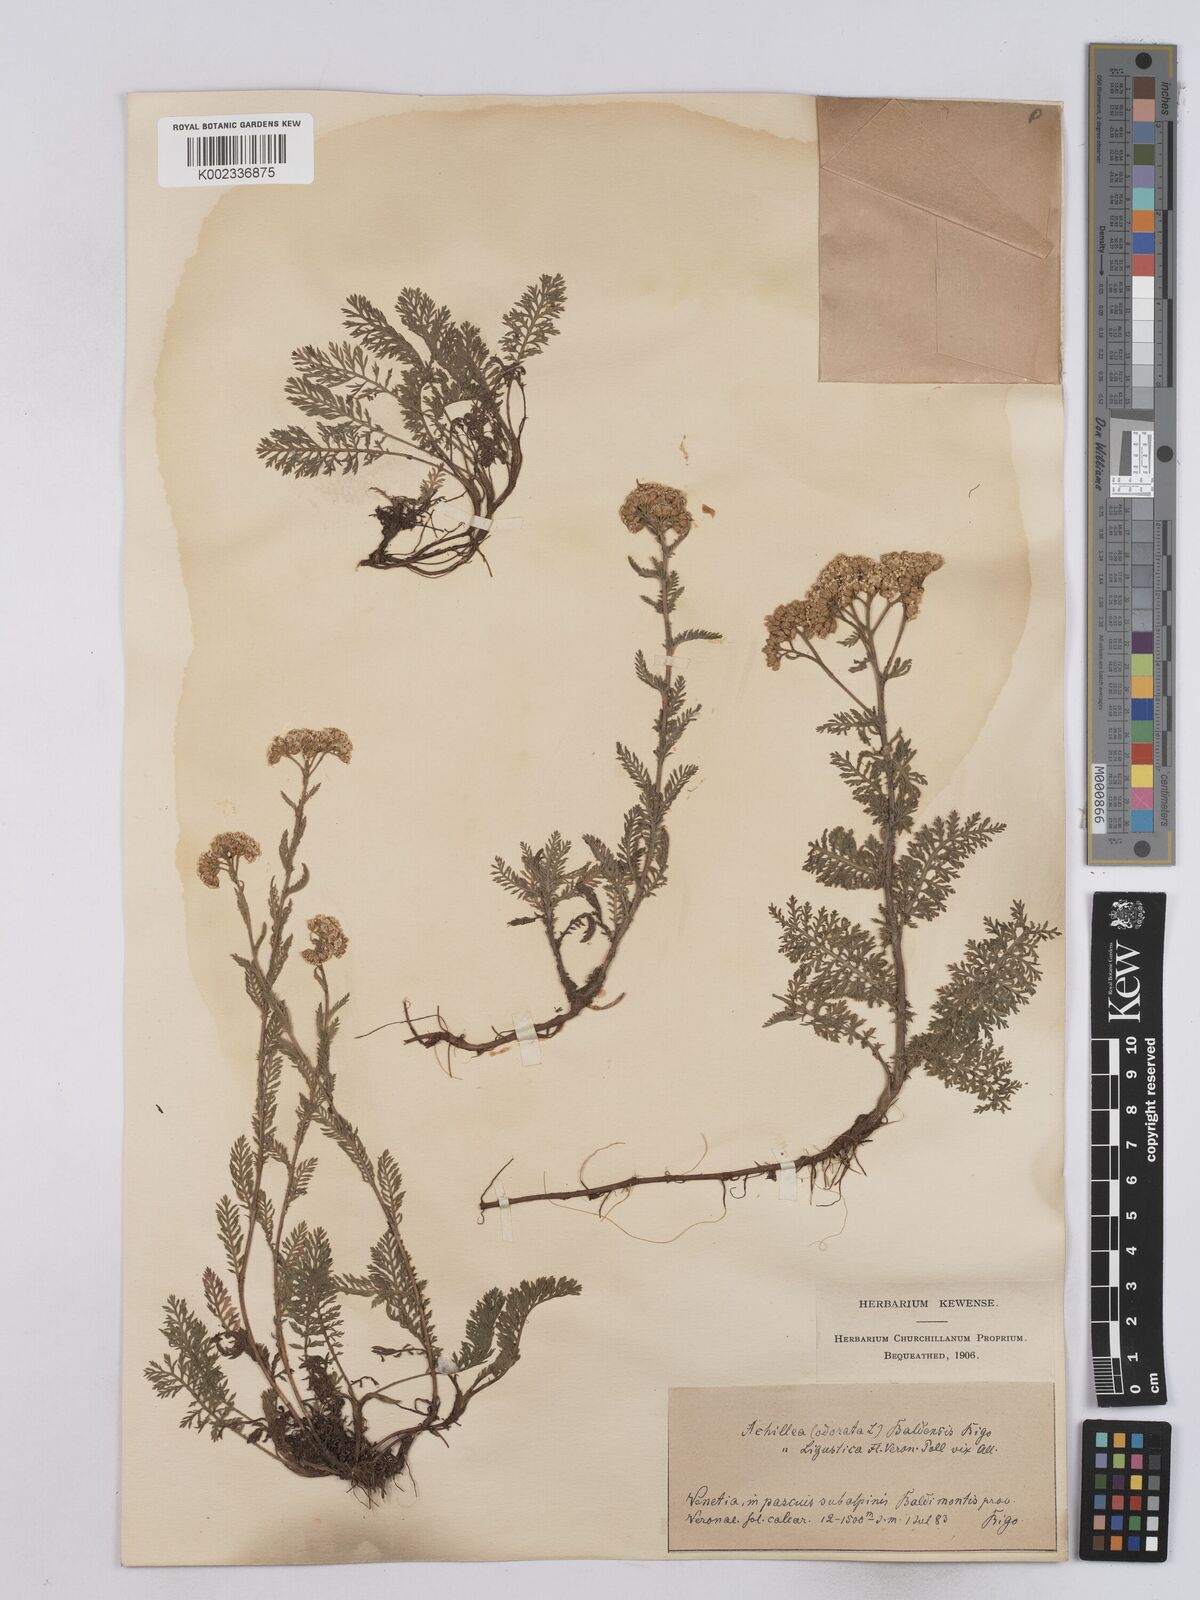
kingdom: Plantae
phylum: Tracheophyta
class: Magnoliopsida
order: Asterales
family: Asteraceae
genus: Achillea
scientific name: Achillea odorata
